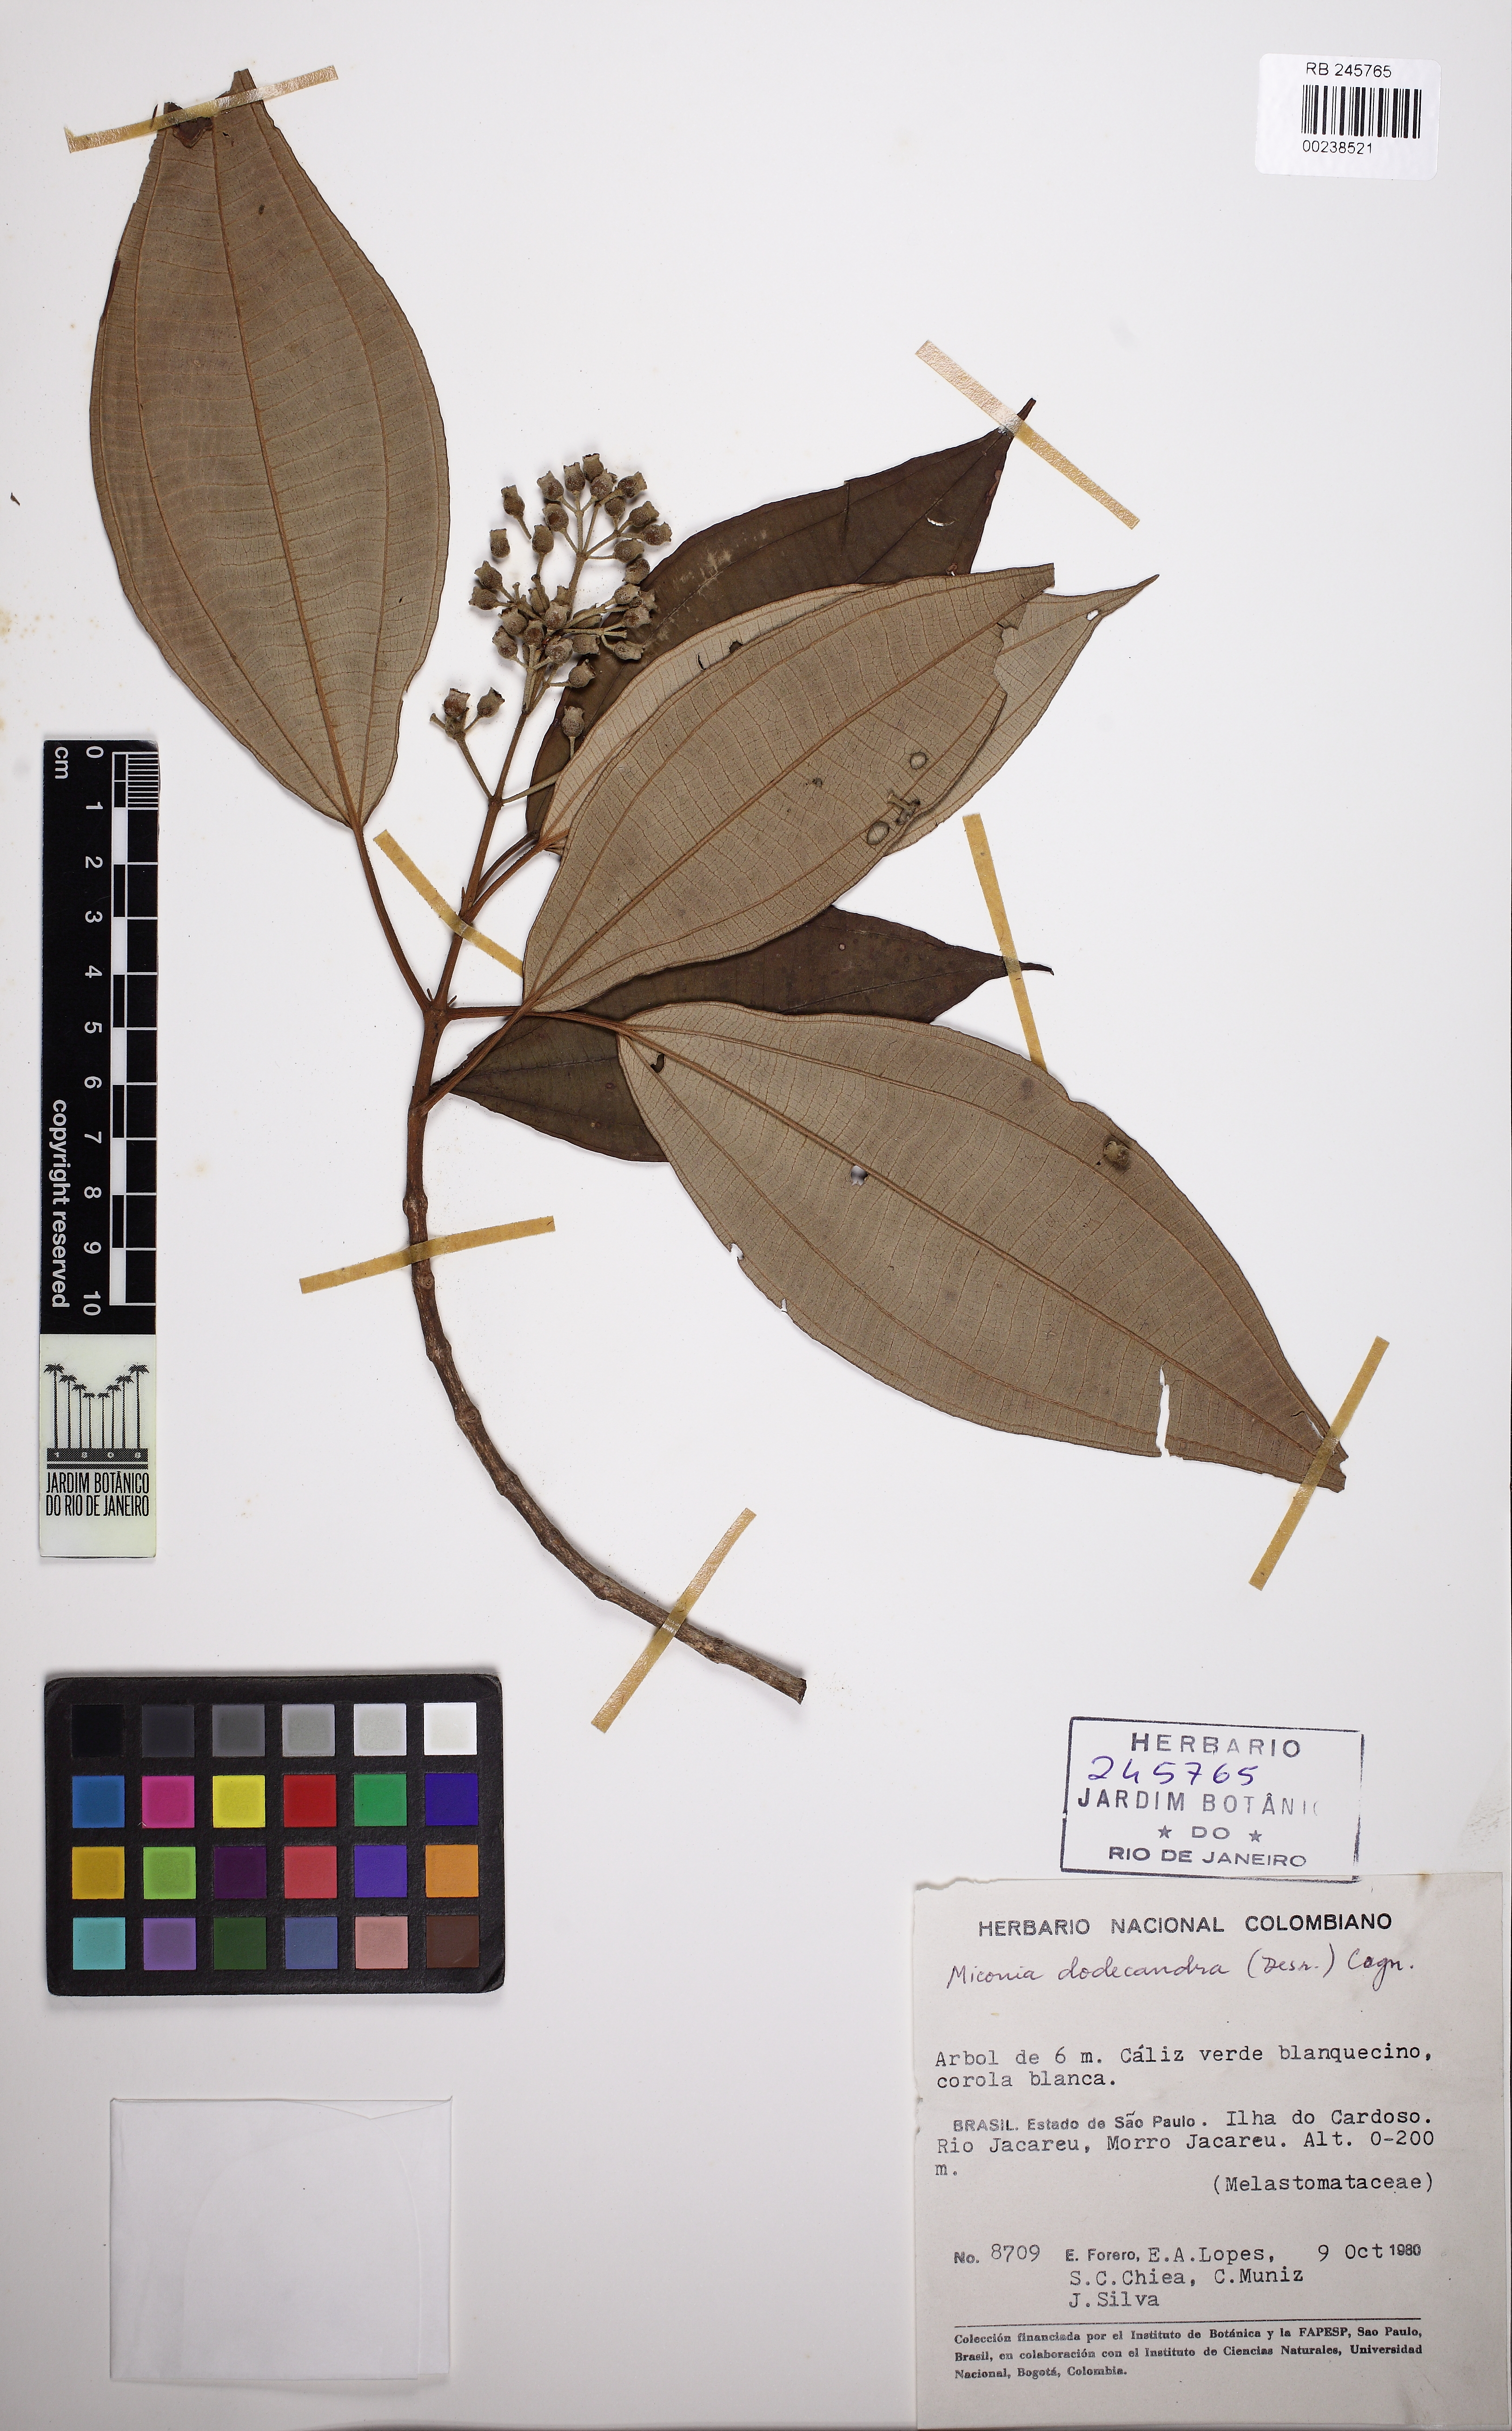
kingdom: Plantae
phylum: Tracheophyta
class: Magnoliopsida
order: Myrtales
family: Melastomataceae
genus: Miconia
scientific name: Miconia dodecandra
